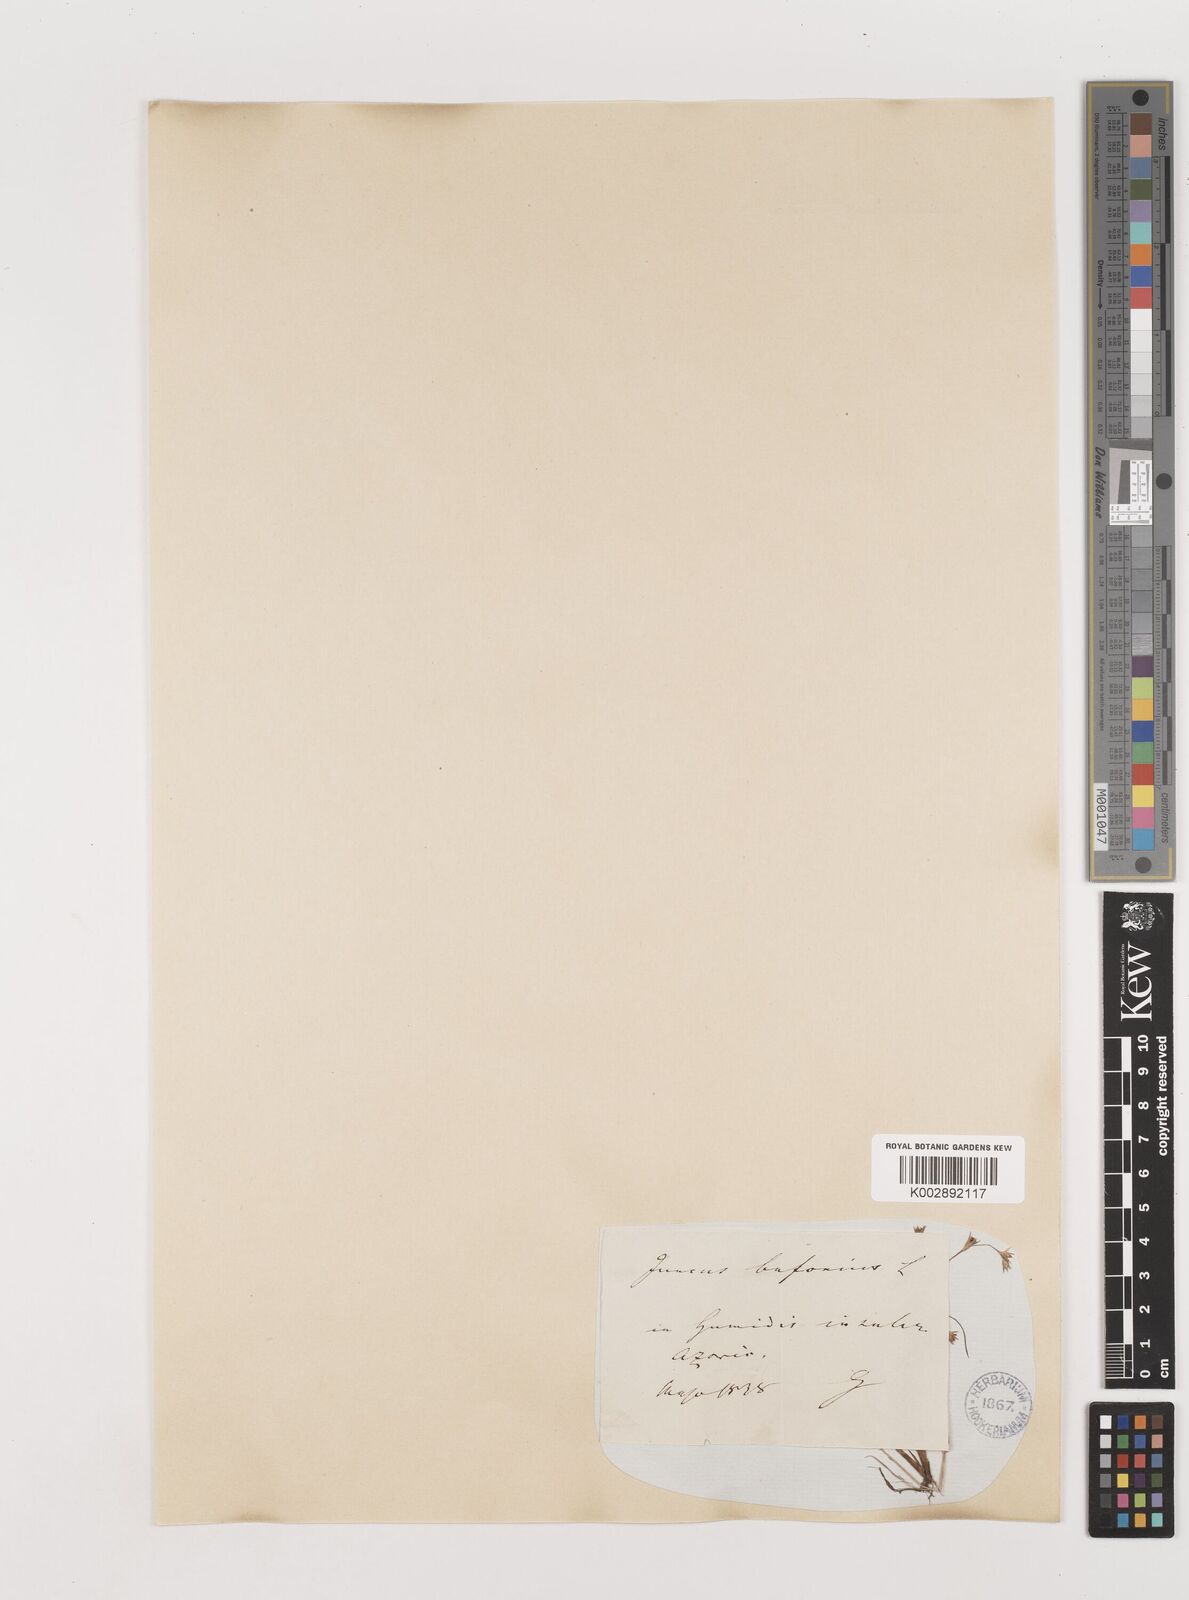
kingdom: Plantae
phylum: Tracheophyta
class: Liliopsida
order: Poales
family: Juncaceae
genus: Juncus
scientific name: Juncus bufonius
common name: Toad rush
